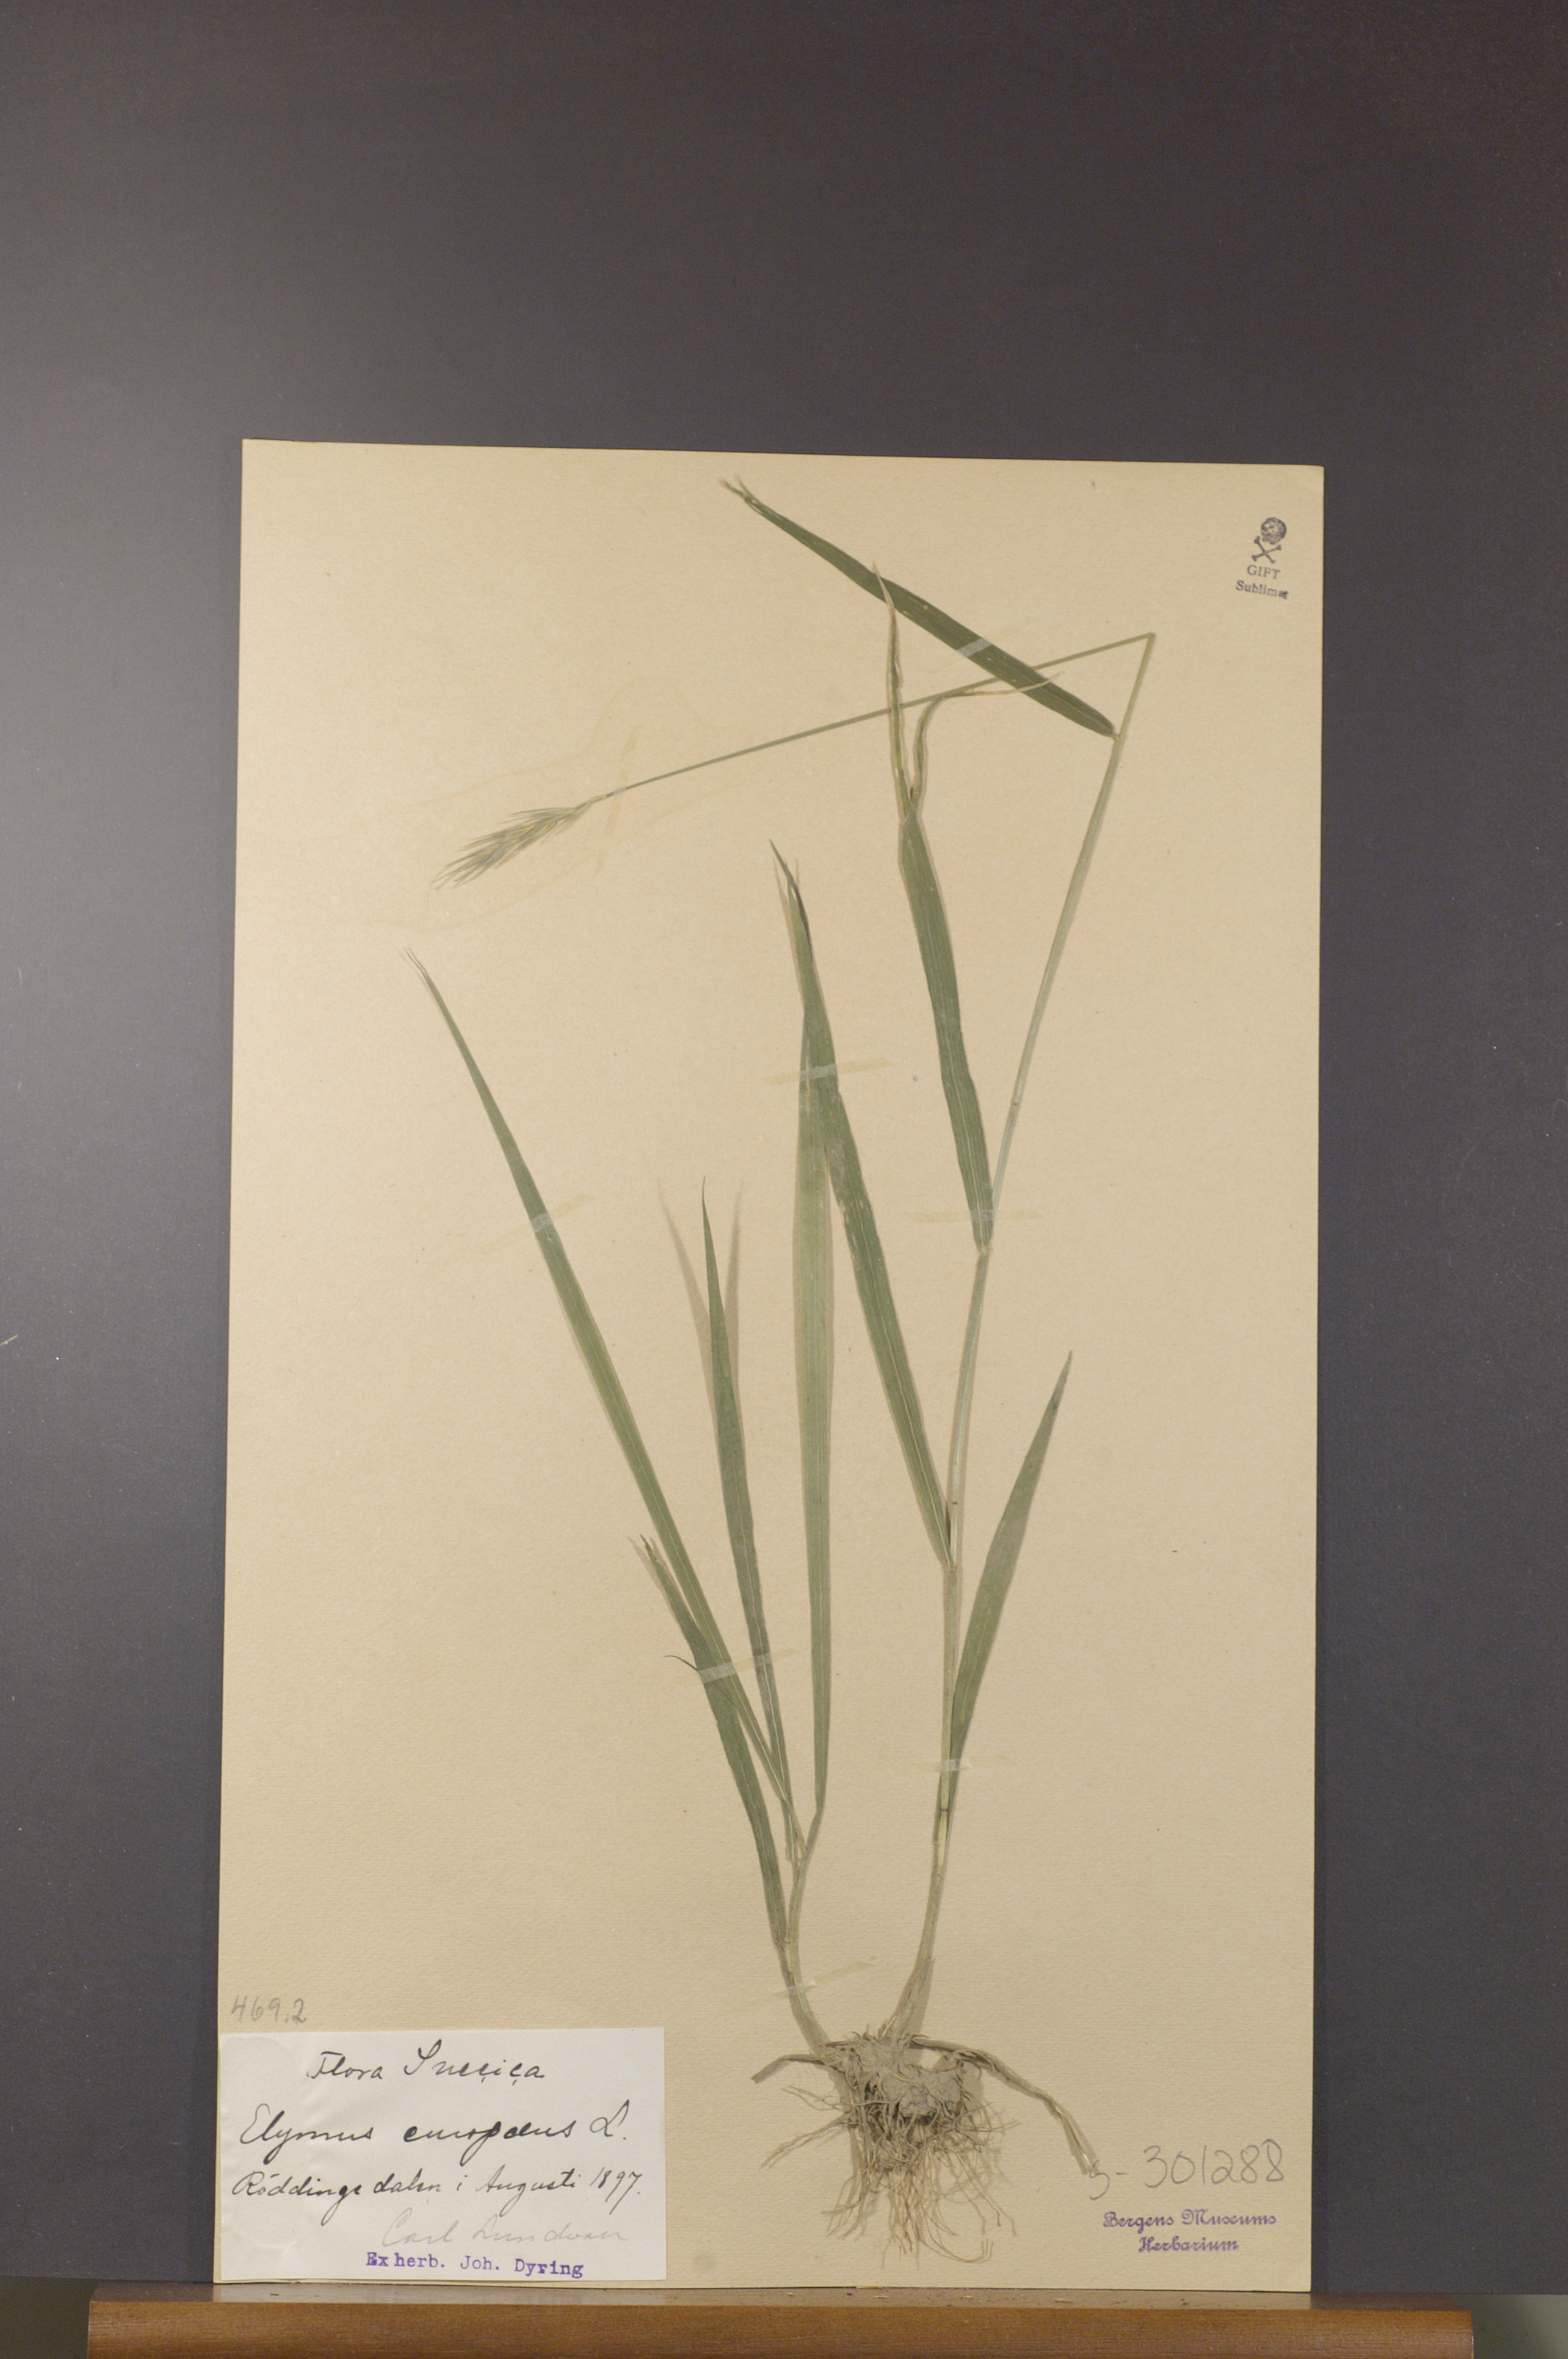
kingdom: Plantae
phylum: Tracheophyta
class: Liliopsida
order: Poales
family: Poaceae
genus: Hordelymus
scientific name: Hordelymus europaeus
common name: Wood-barley
